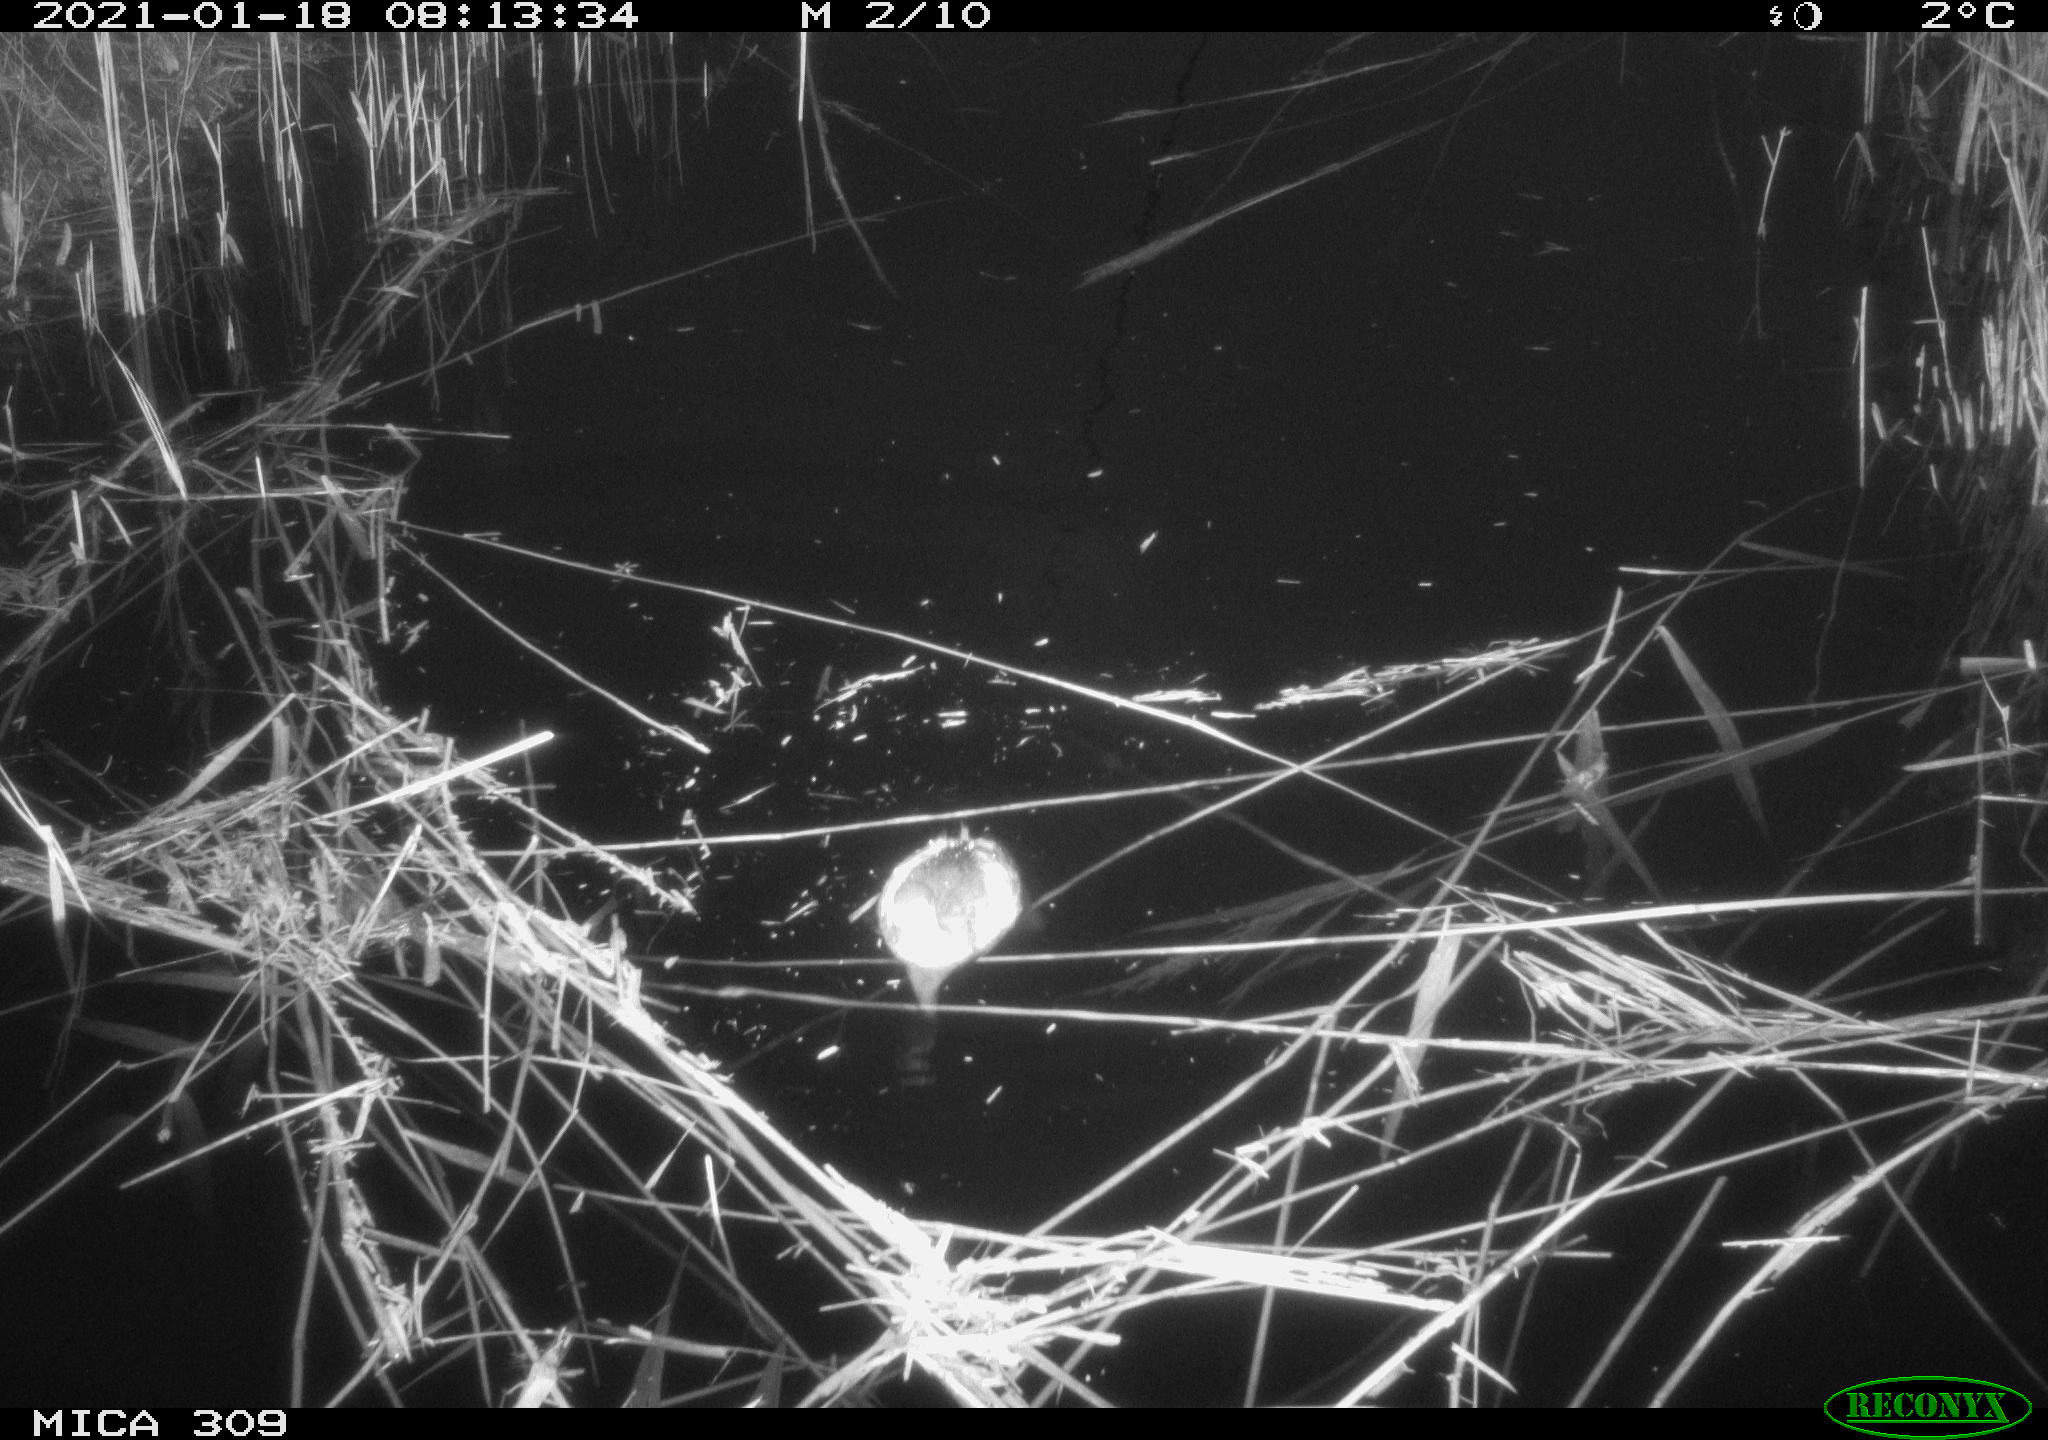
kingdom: Animalia
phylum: Chordata
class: Aves
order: Podicipediformes
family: Podicipedidae
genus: Tachybaptus
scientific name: Tachybaptus ruficollis
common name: Little grebe
